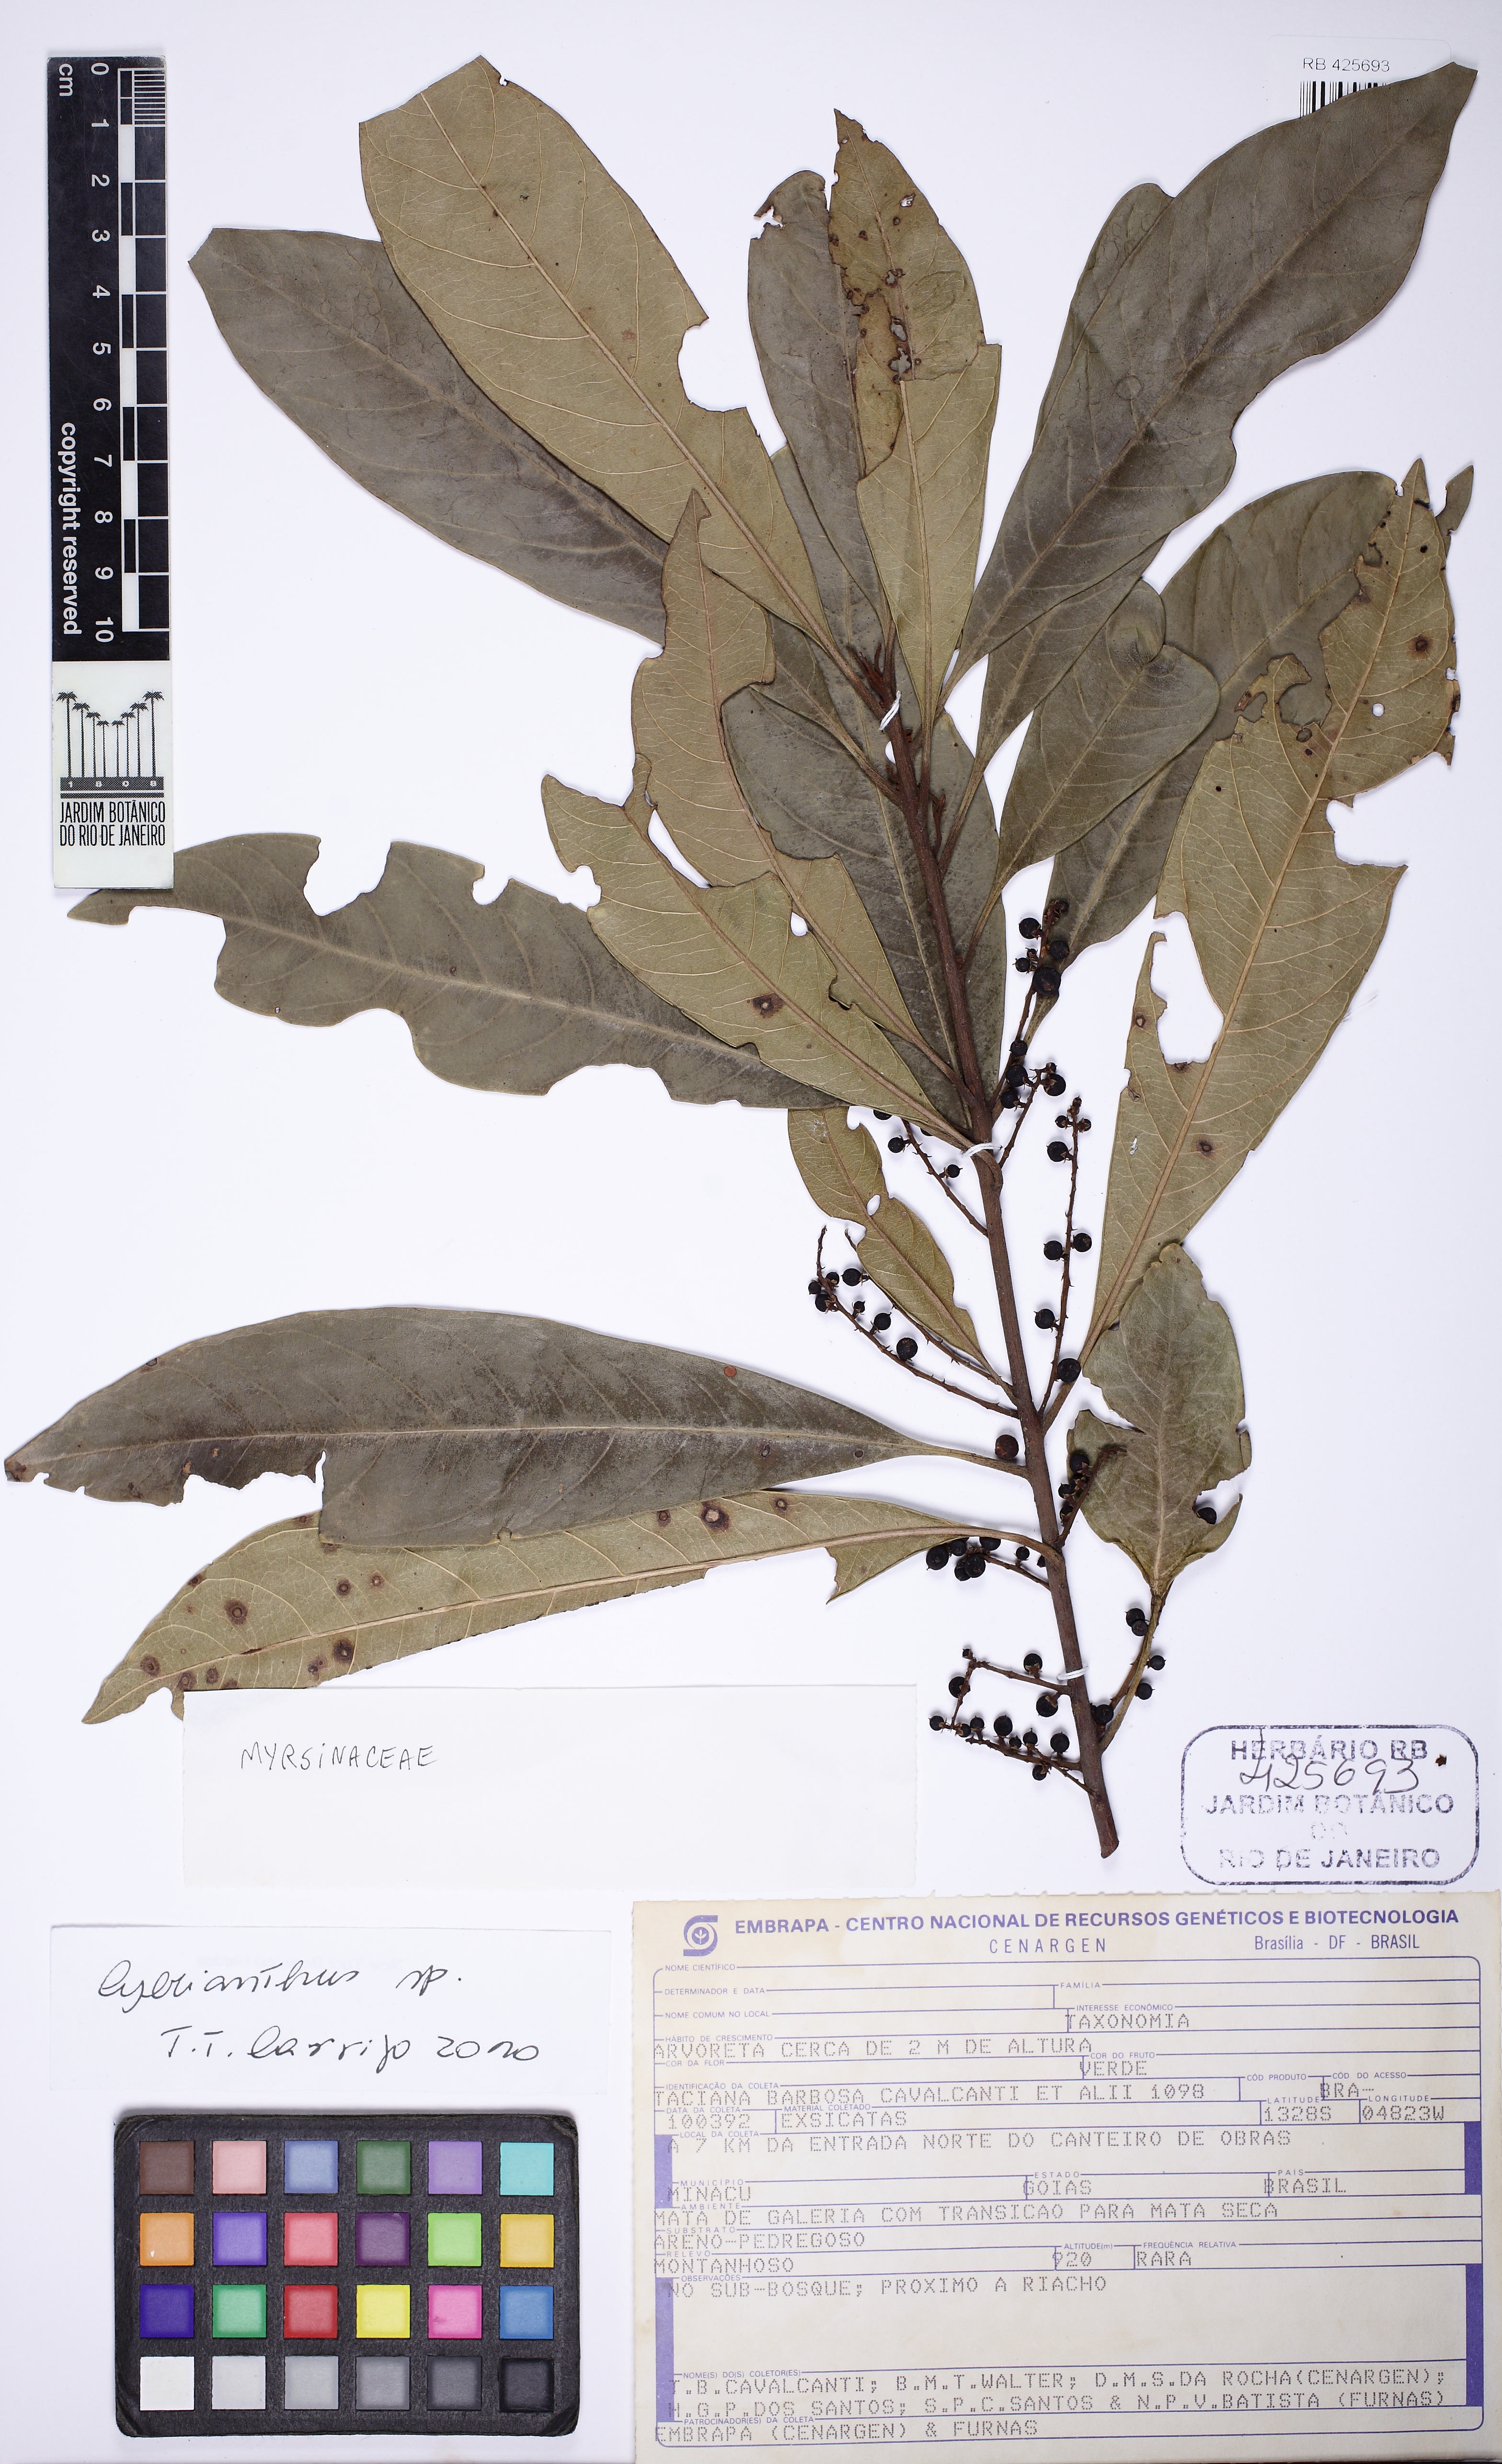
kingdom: Plantae
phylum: Tracheophyta
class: Magnoliopsida
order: Ericales
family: Primulaceae
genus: Cybianthus
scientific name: Cybianthus
